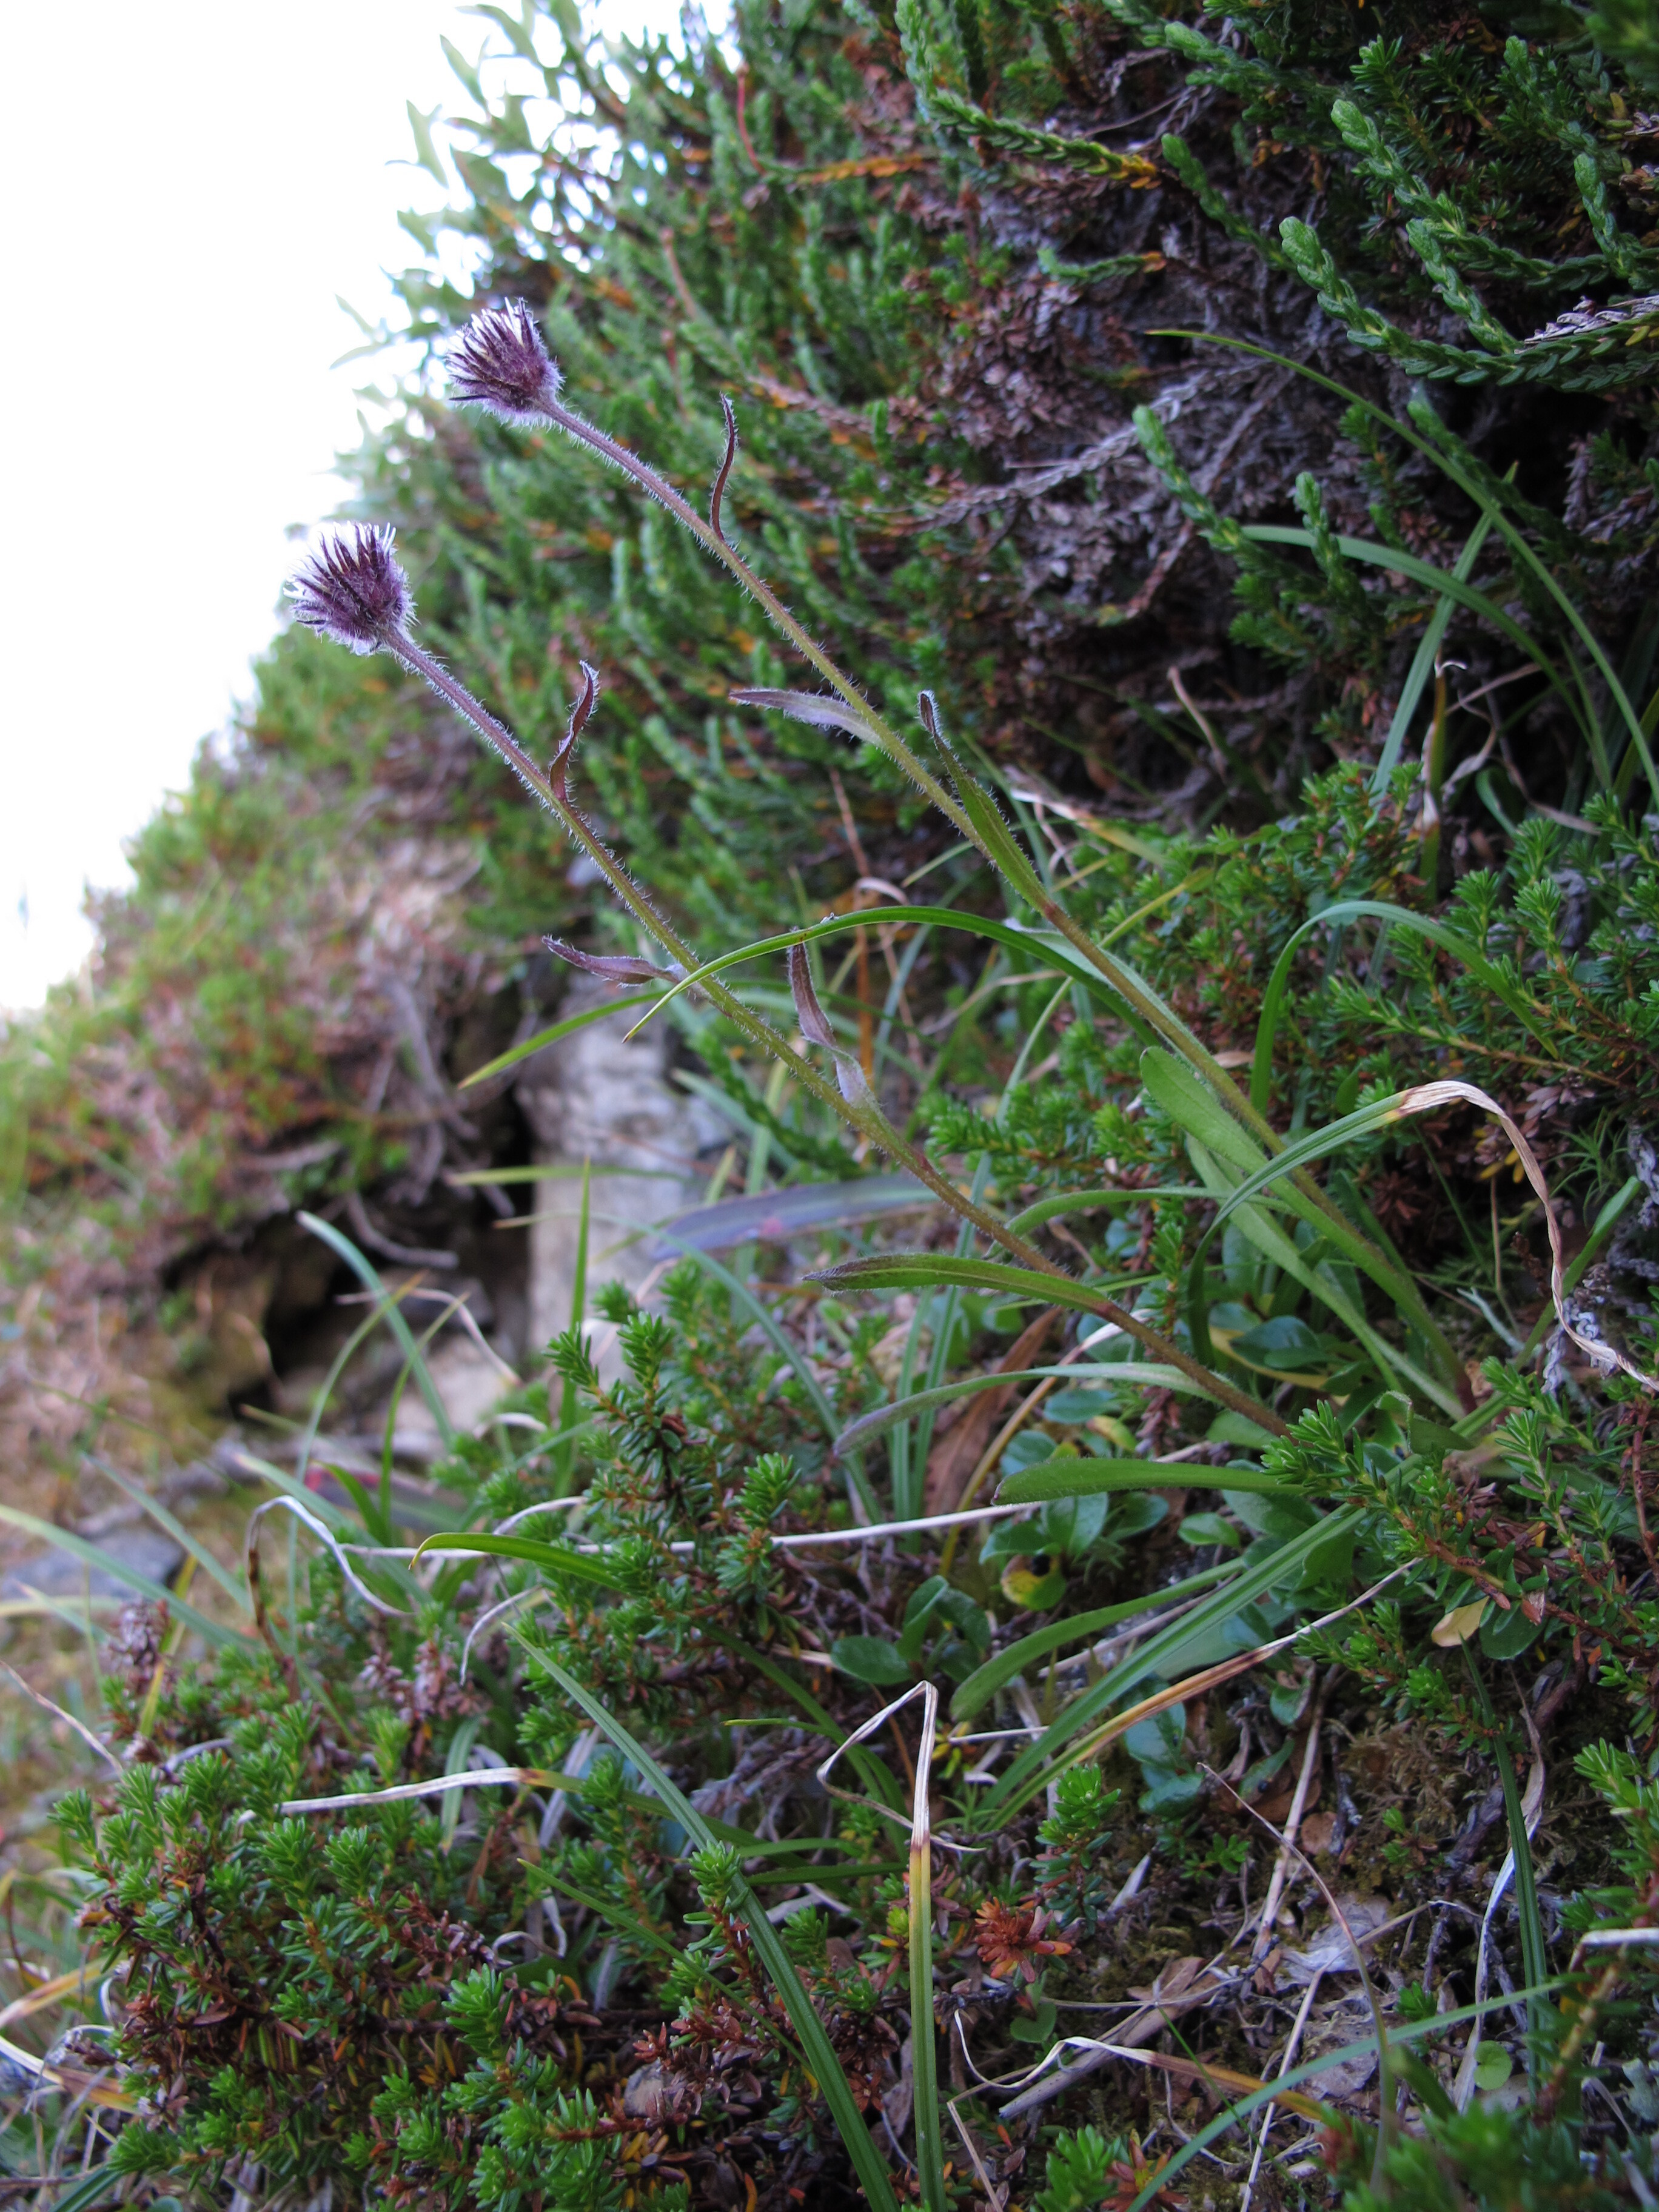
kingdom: Plantae
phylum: Tracheophyta
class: Magnoliopsida
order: Asterales
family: Asteraceae
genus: Erigeron
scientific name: Erigeron humilis
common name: Arctic-alpine fleabane
